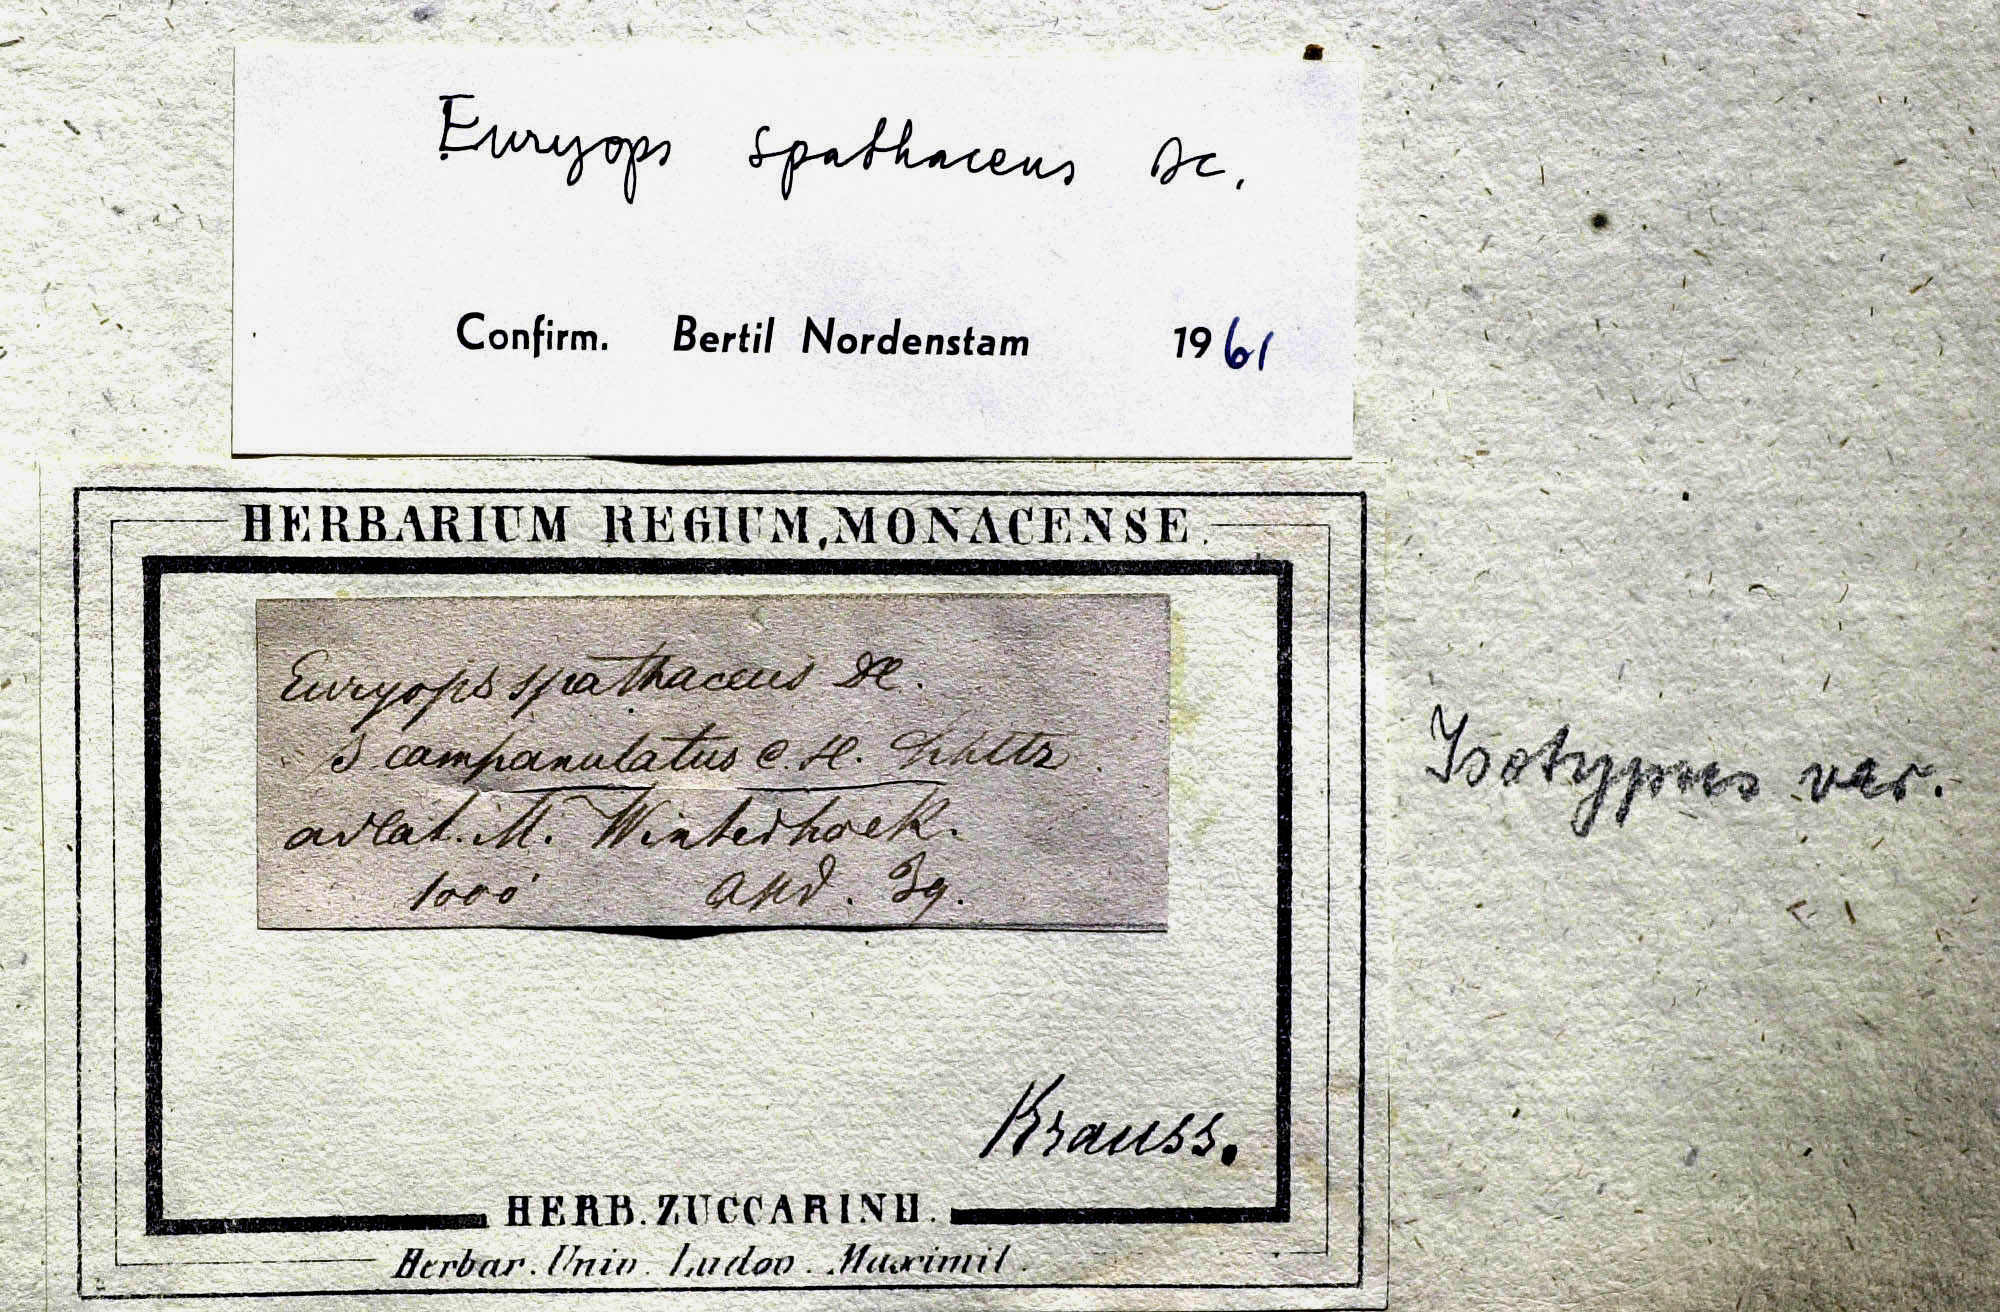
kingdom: Plantae
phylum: Tracheophyta
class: Magnoliopsida
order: Asterales
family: Asteraceae
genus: Euryops
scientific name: Euryops spathaceus
